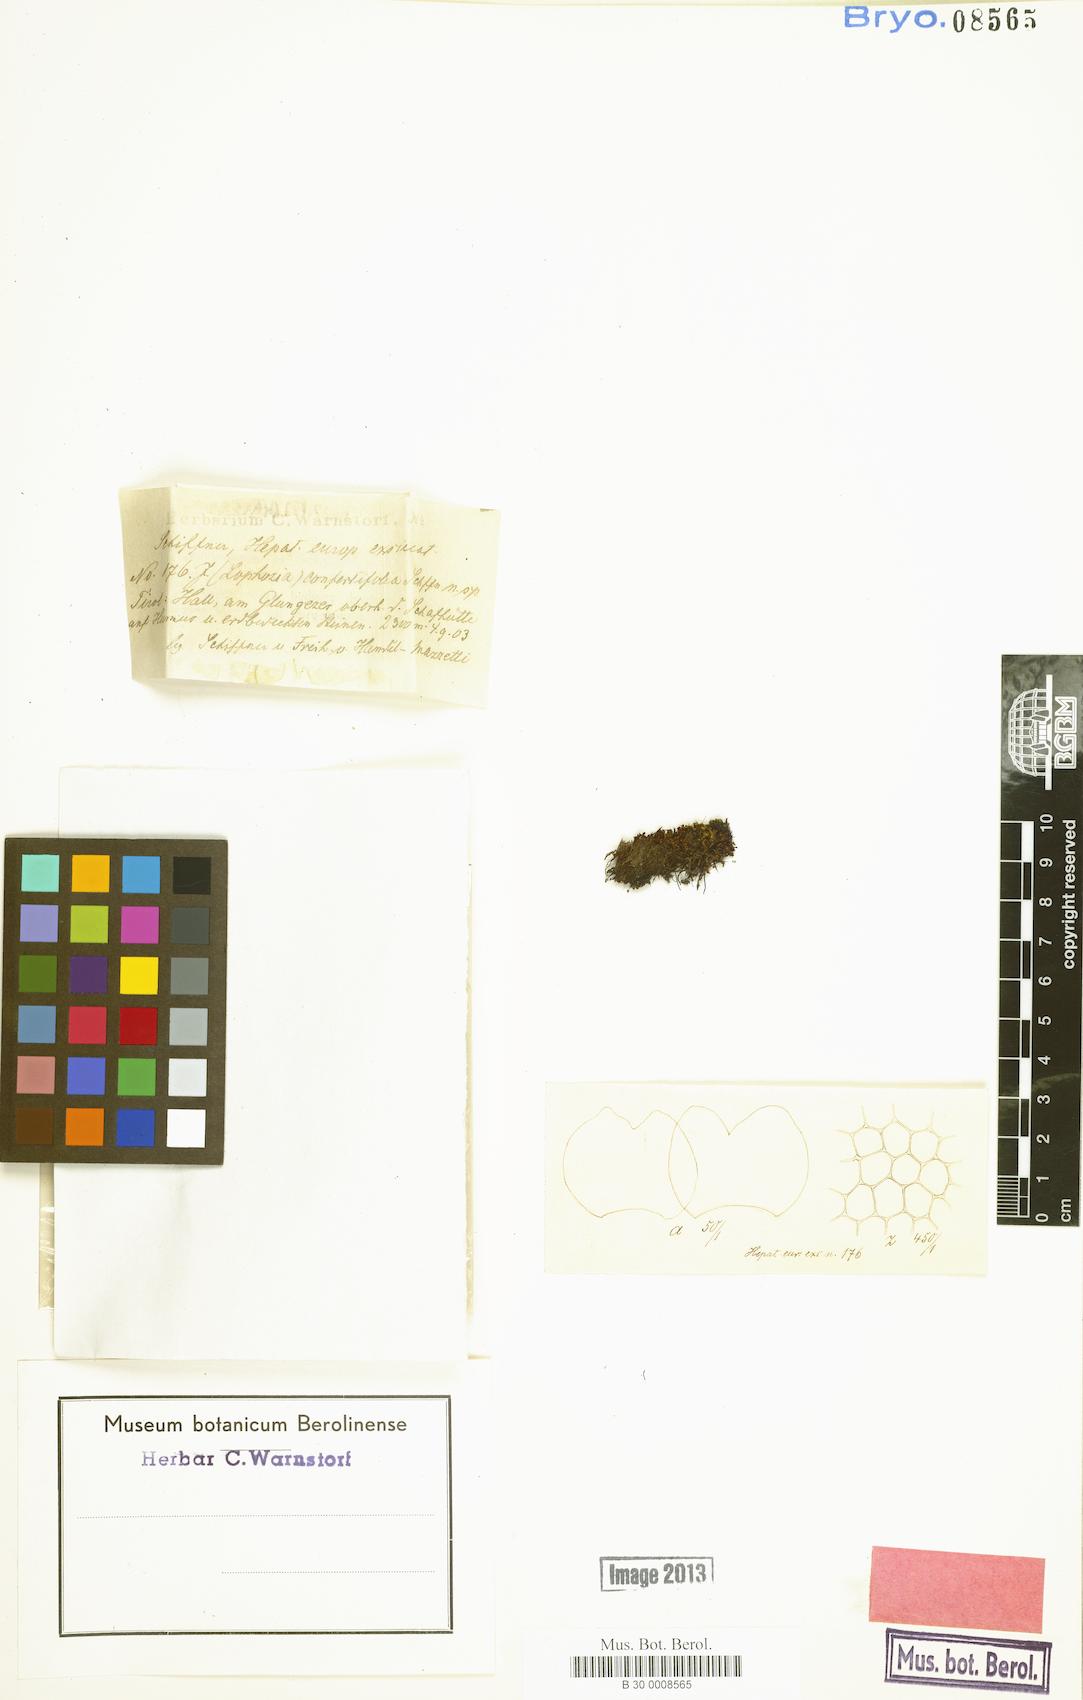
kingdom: Plantae
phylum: Marchantiophyta
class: Jungermanniopsida
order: Jungermanniales
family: Lophoziaceae
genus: Lophozia
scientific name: Lophozia murmanica
